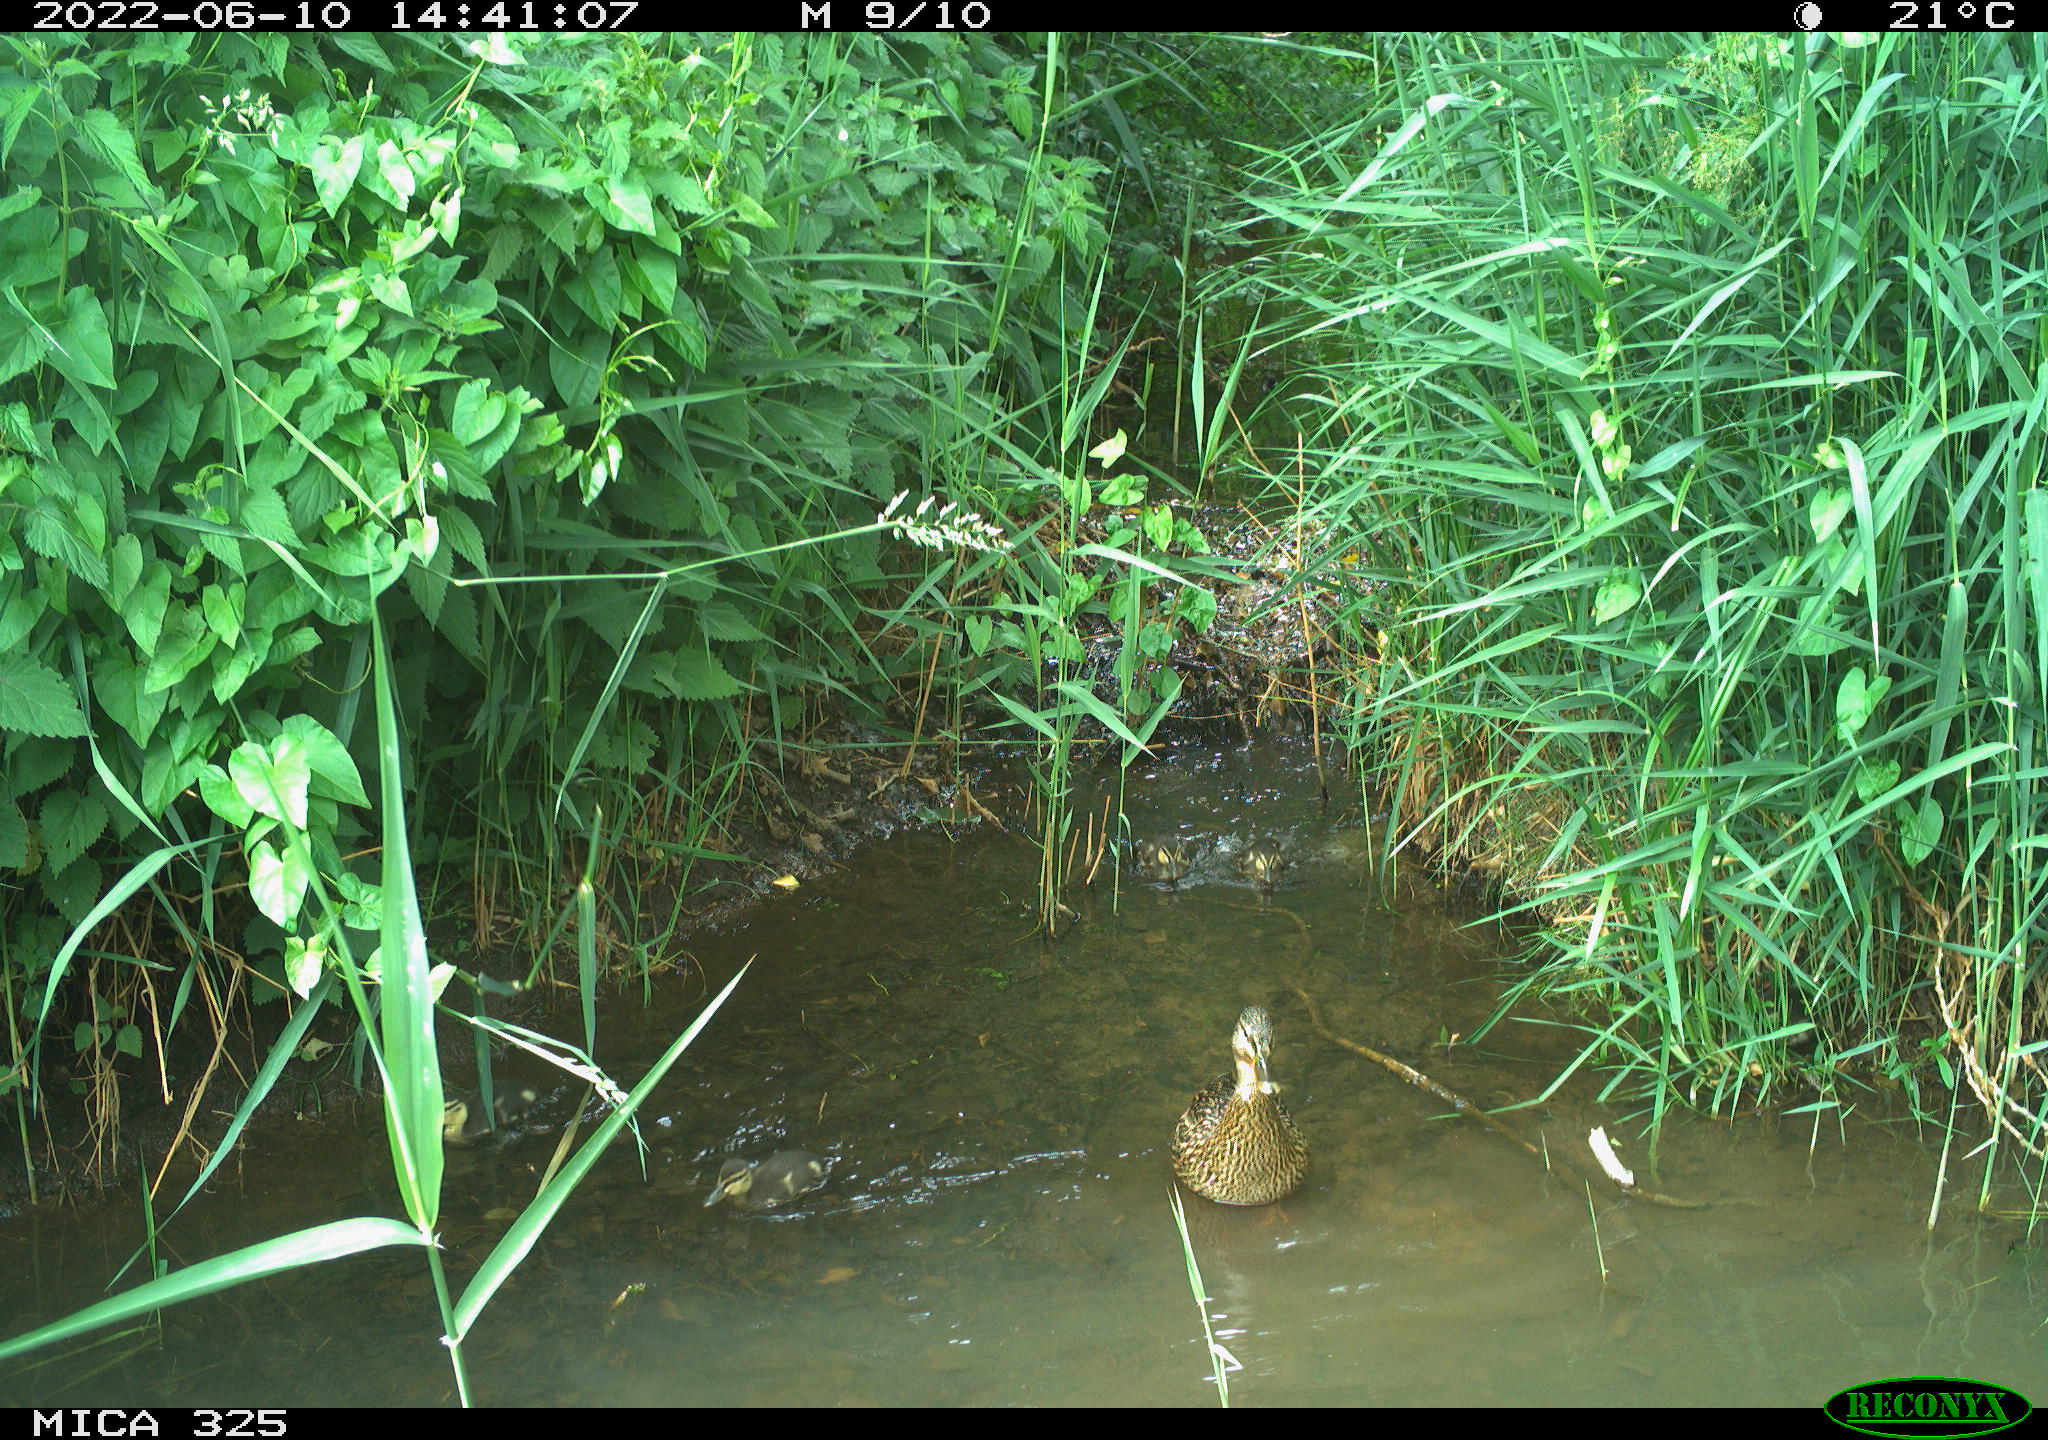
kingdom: Animalia
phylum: Chordata
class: Aves
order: Anseriformes
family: Anatidae
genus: Anas
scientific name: Anas platyrhynchos
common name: Mallard
